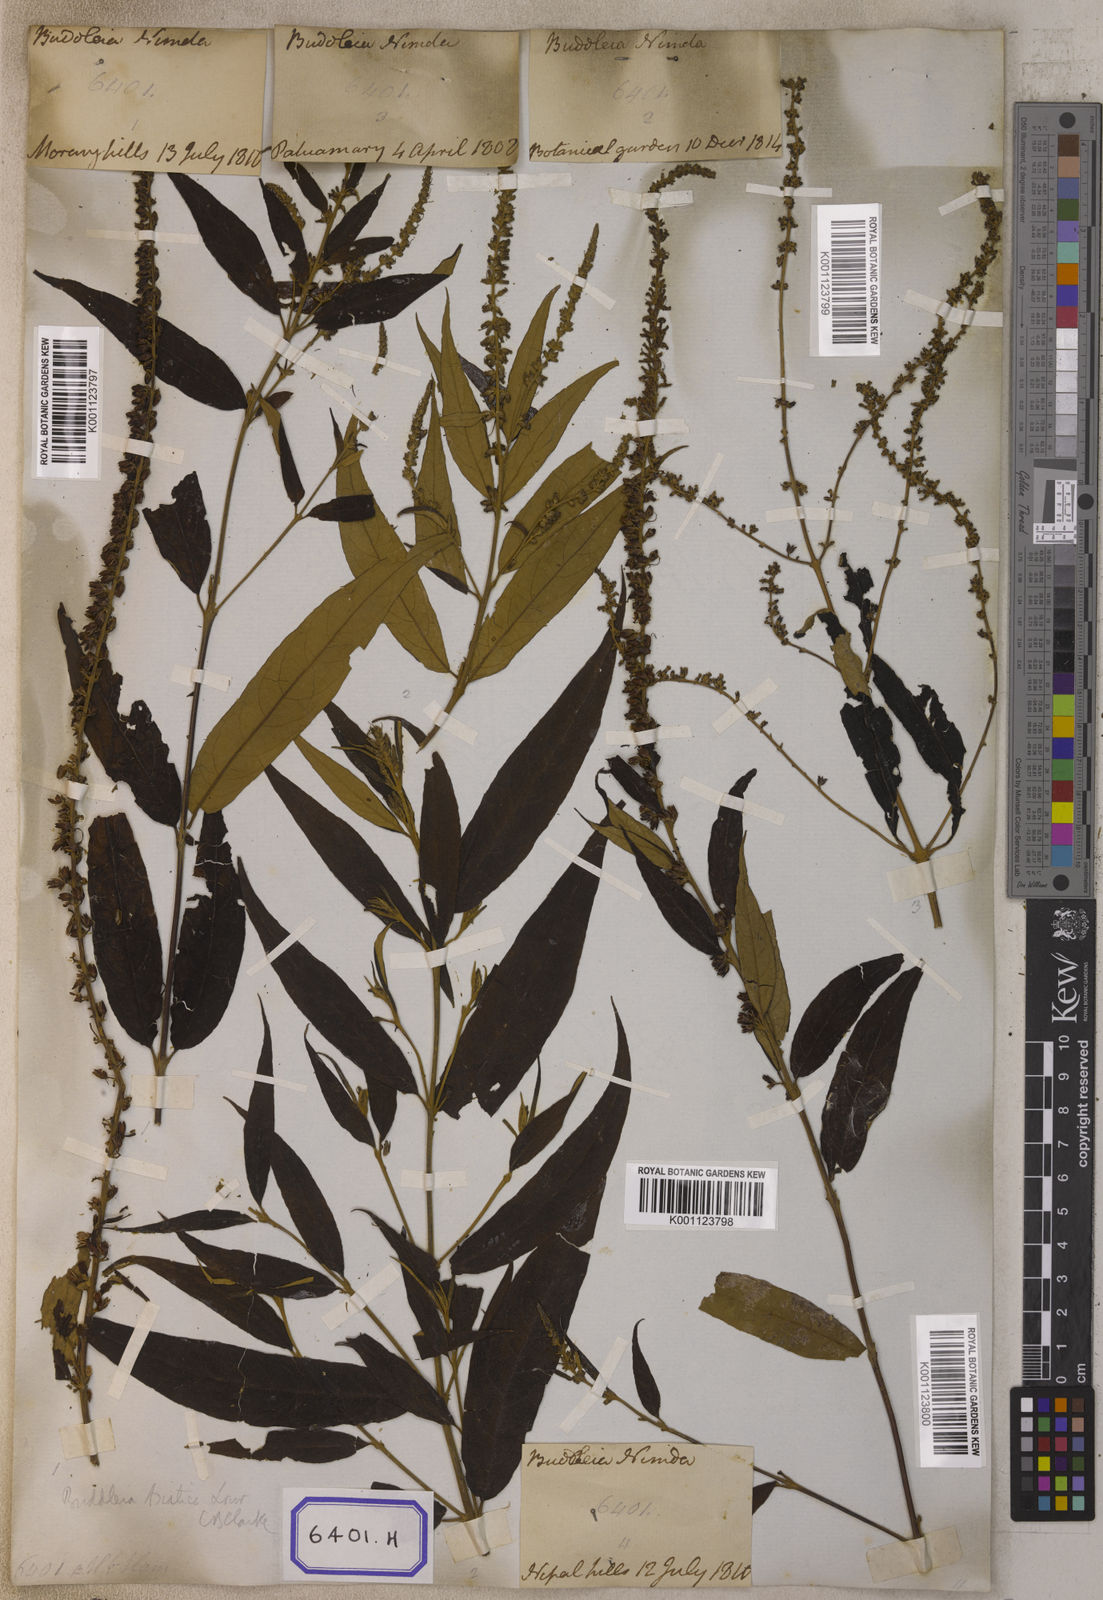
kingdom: Plantae
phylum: Tracheophyta
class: Magnoliopsida
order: Lamiales
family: Scrophulariaceae
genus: Buddleja
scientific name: Buddleja
